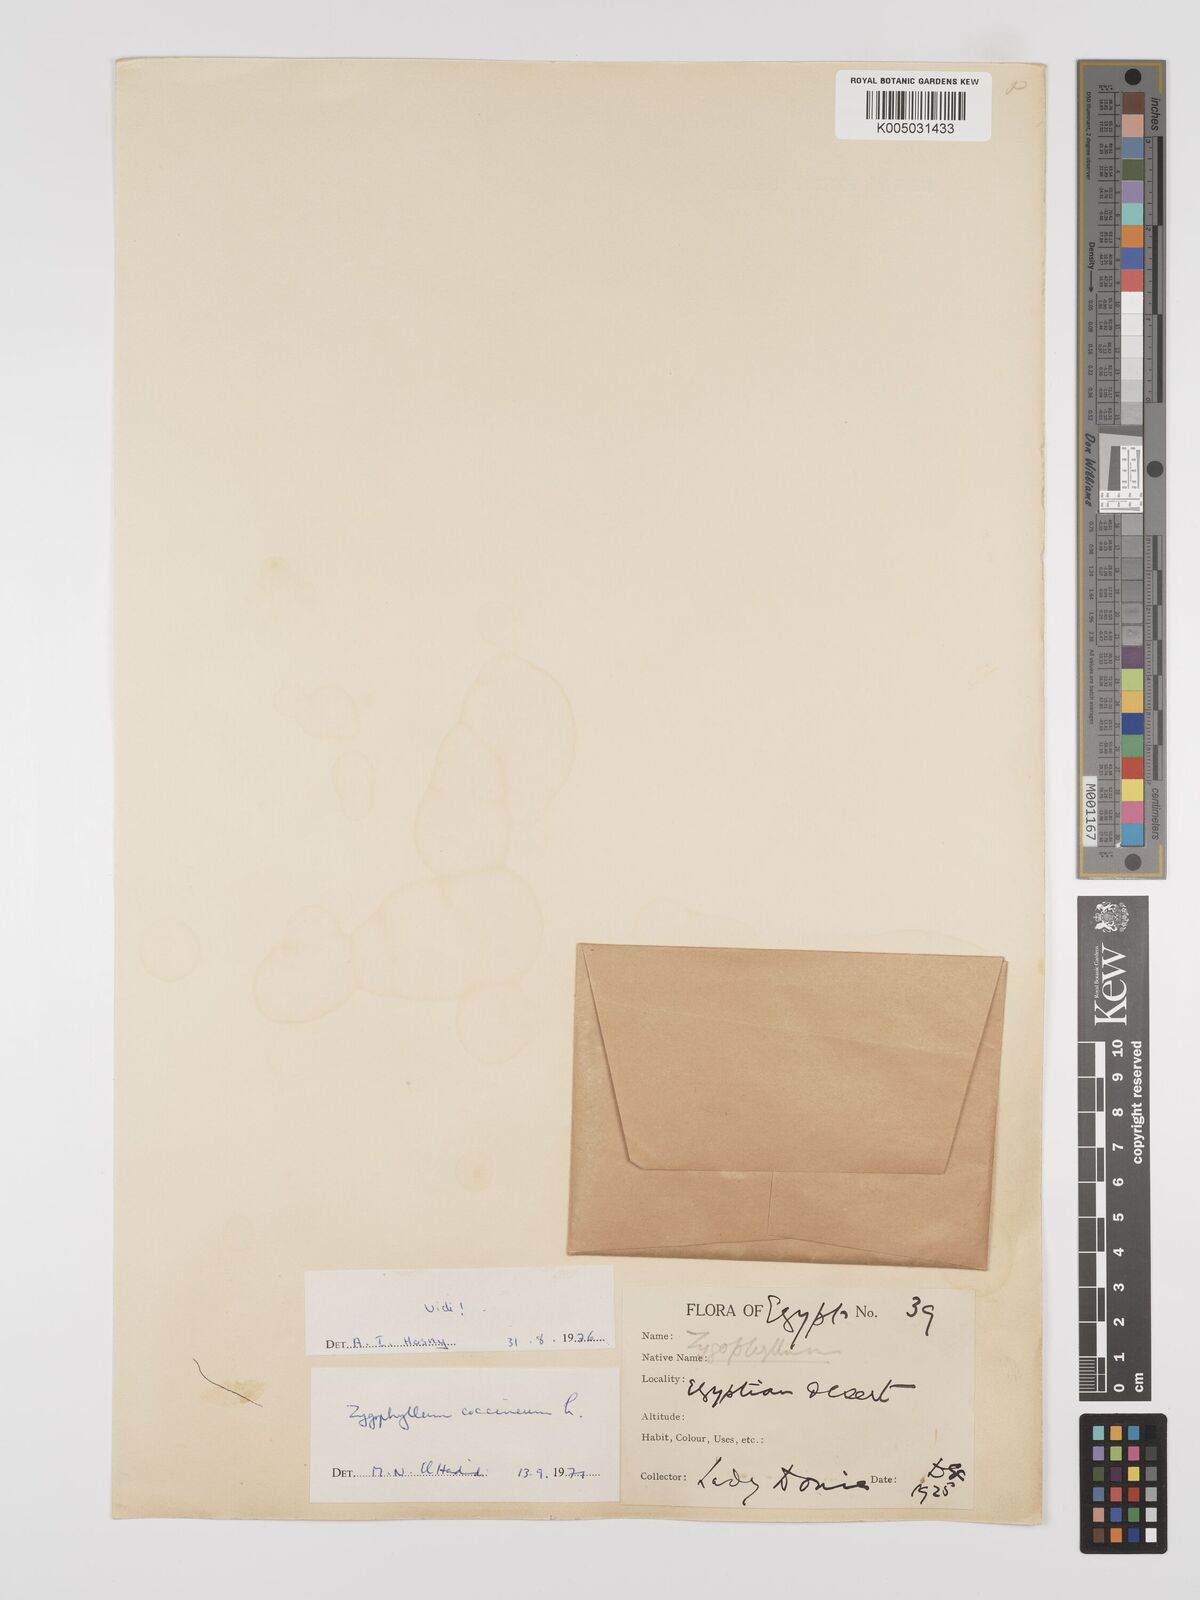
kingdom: Plantae
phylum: Tracheophyta
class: Magnoliopsida
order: Zygophyllales
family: Zygophyllaceae
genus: Zygophyllum
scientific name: Zygophyllum
